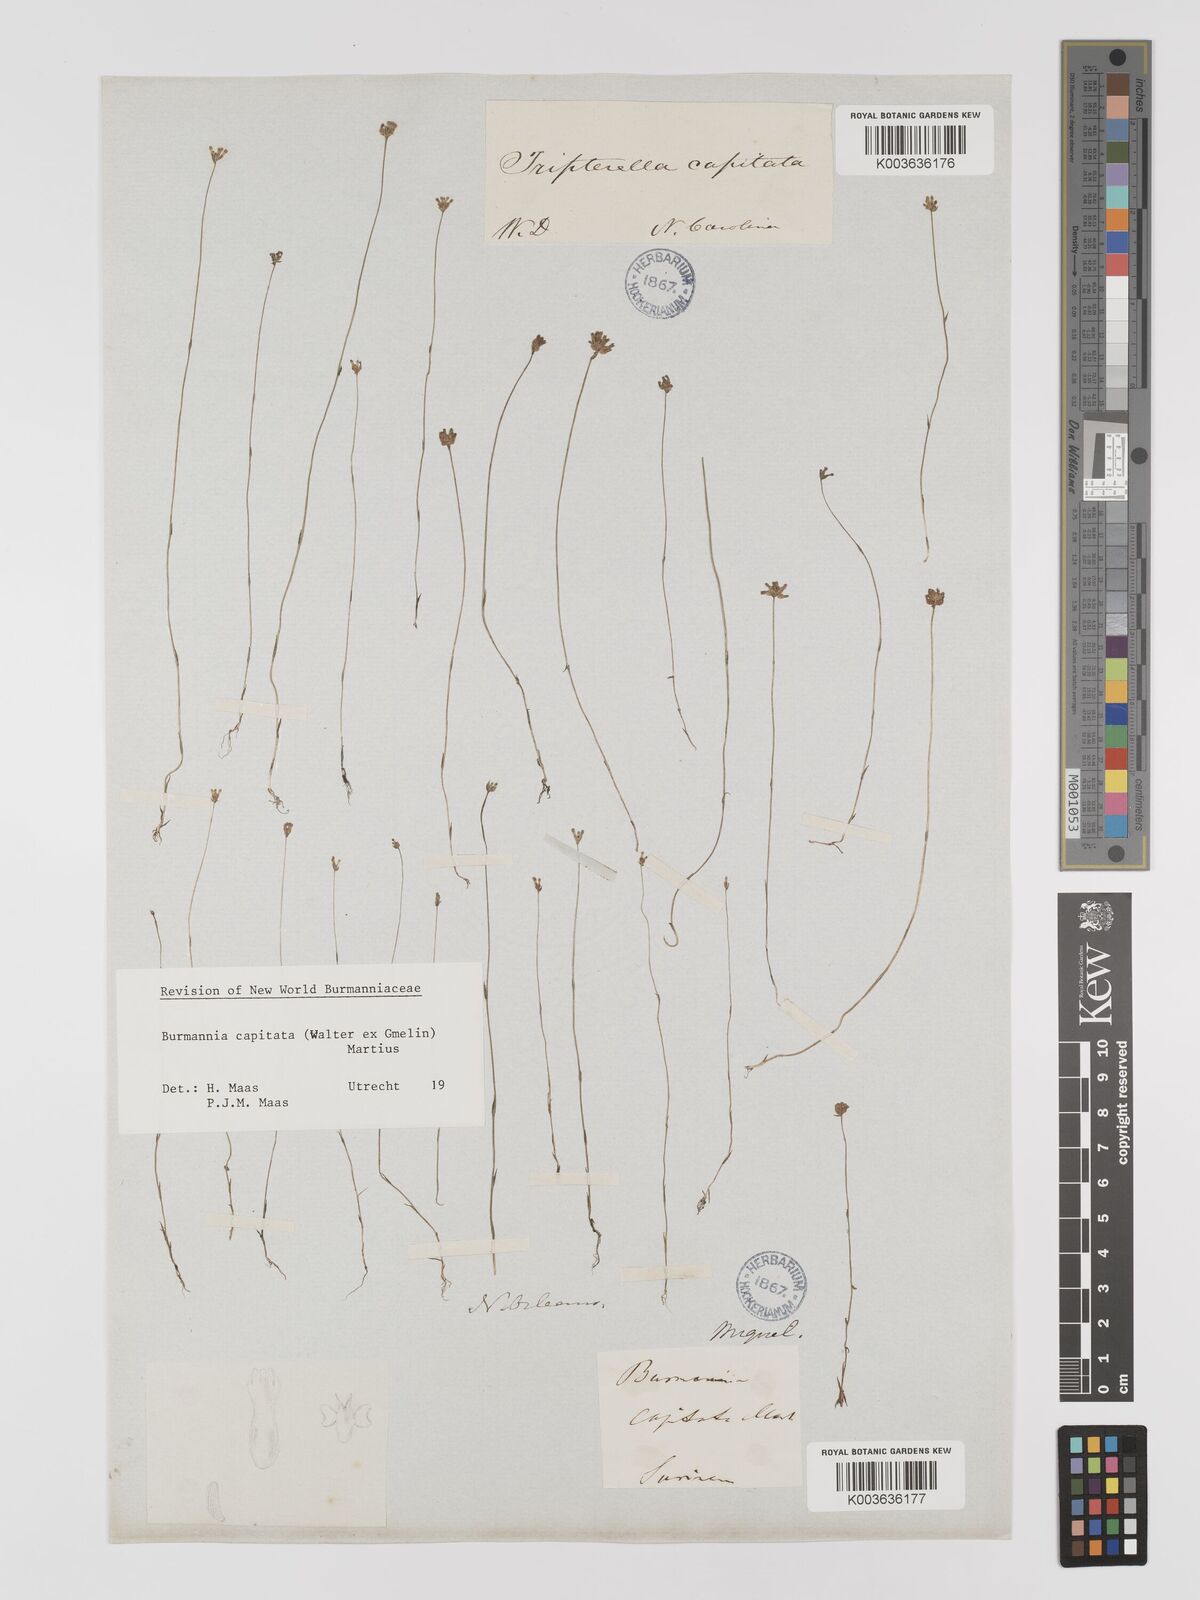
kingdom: Plantae
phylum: Tracheophyta
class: Liliopsida
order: Dioscoreales
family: Burmanniaceae
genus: Burmannia
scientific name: Burmannia capitata
